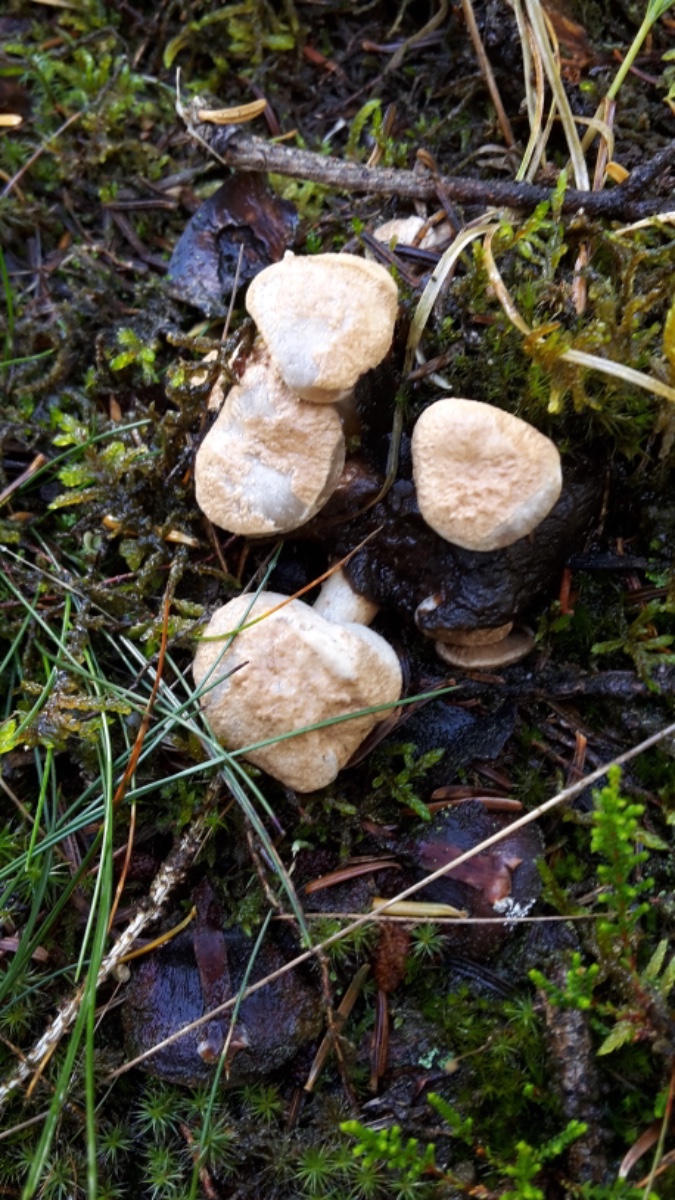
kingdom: Fungi
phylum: Basidiomycota
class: Agaricomycetes
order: Agaricales
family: Lyophyllaceae
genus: Asterophora
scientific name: Asterophora lycoperdoides
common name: brunpudret snyltehat
